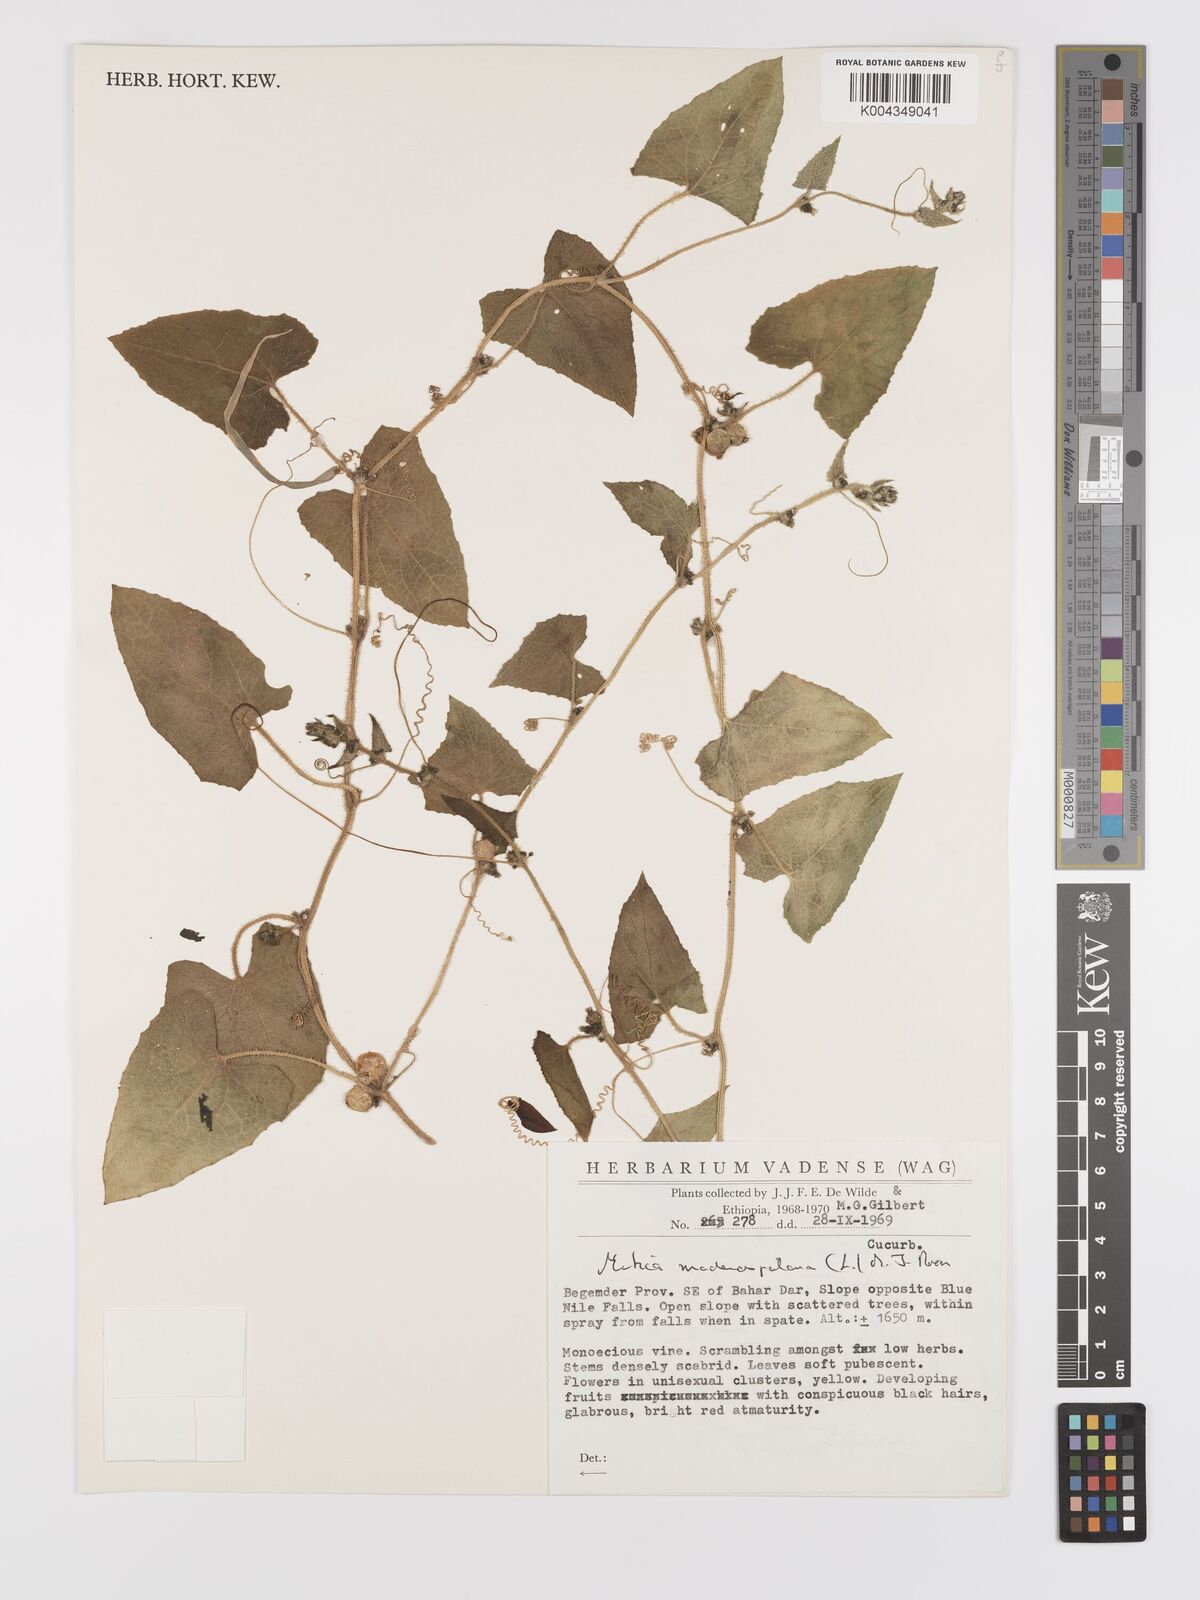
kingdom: Plantae
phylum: Tracheophyta
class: Magnoliopsida
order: Cucurbitales
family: Cucurbitaceae
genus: Cucumis
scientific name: Cucumis maderaspatanus
